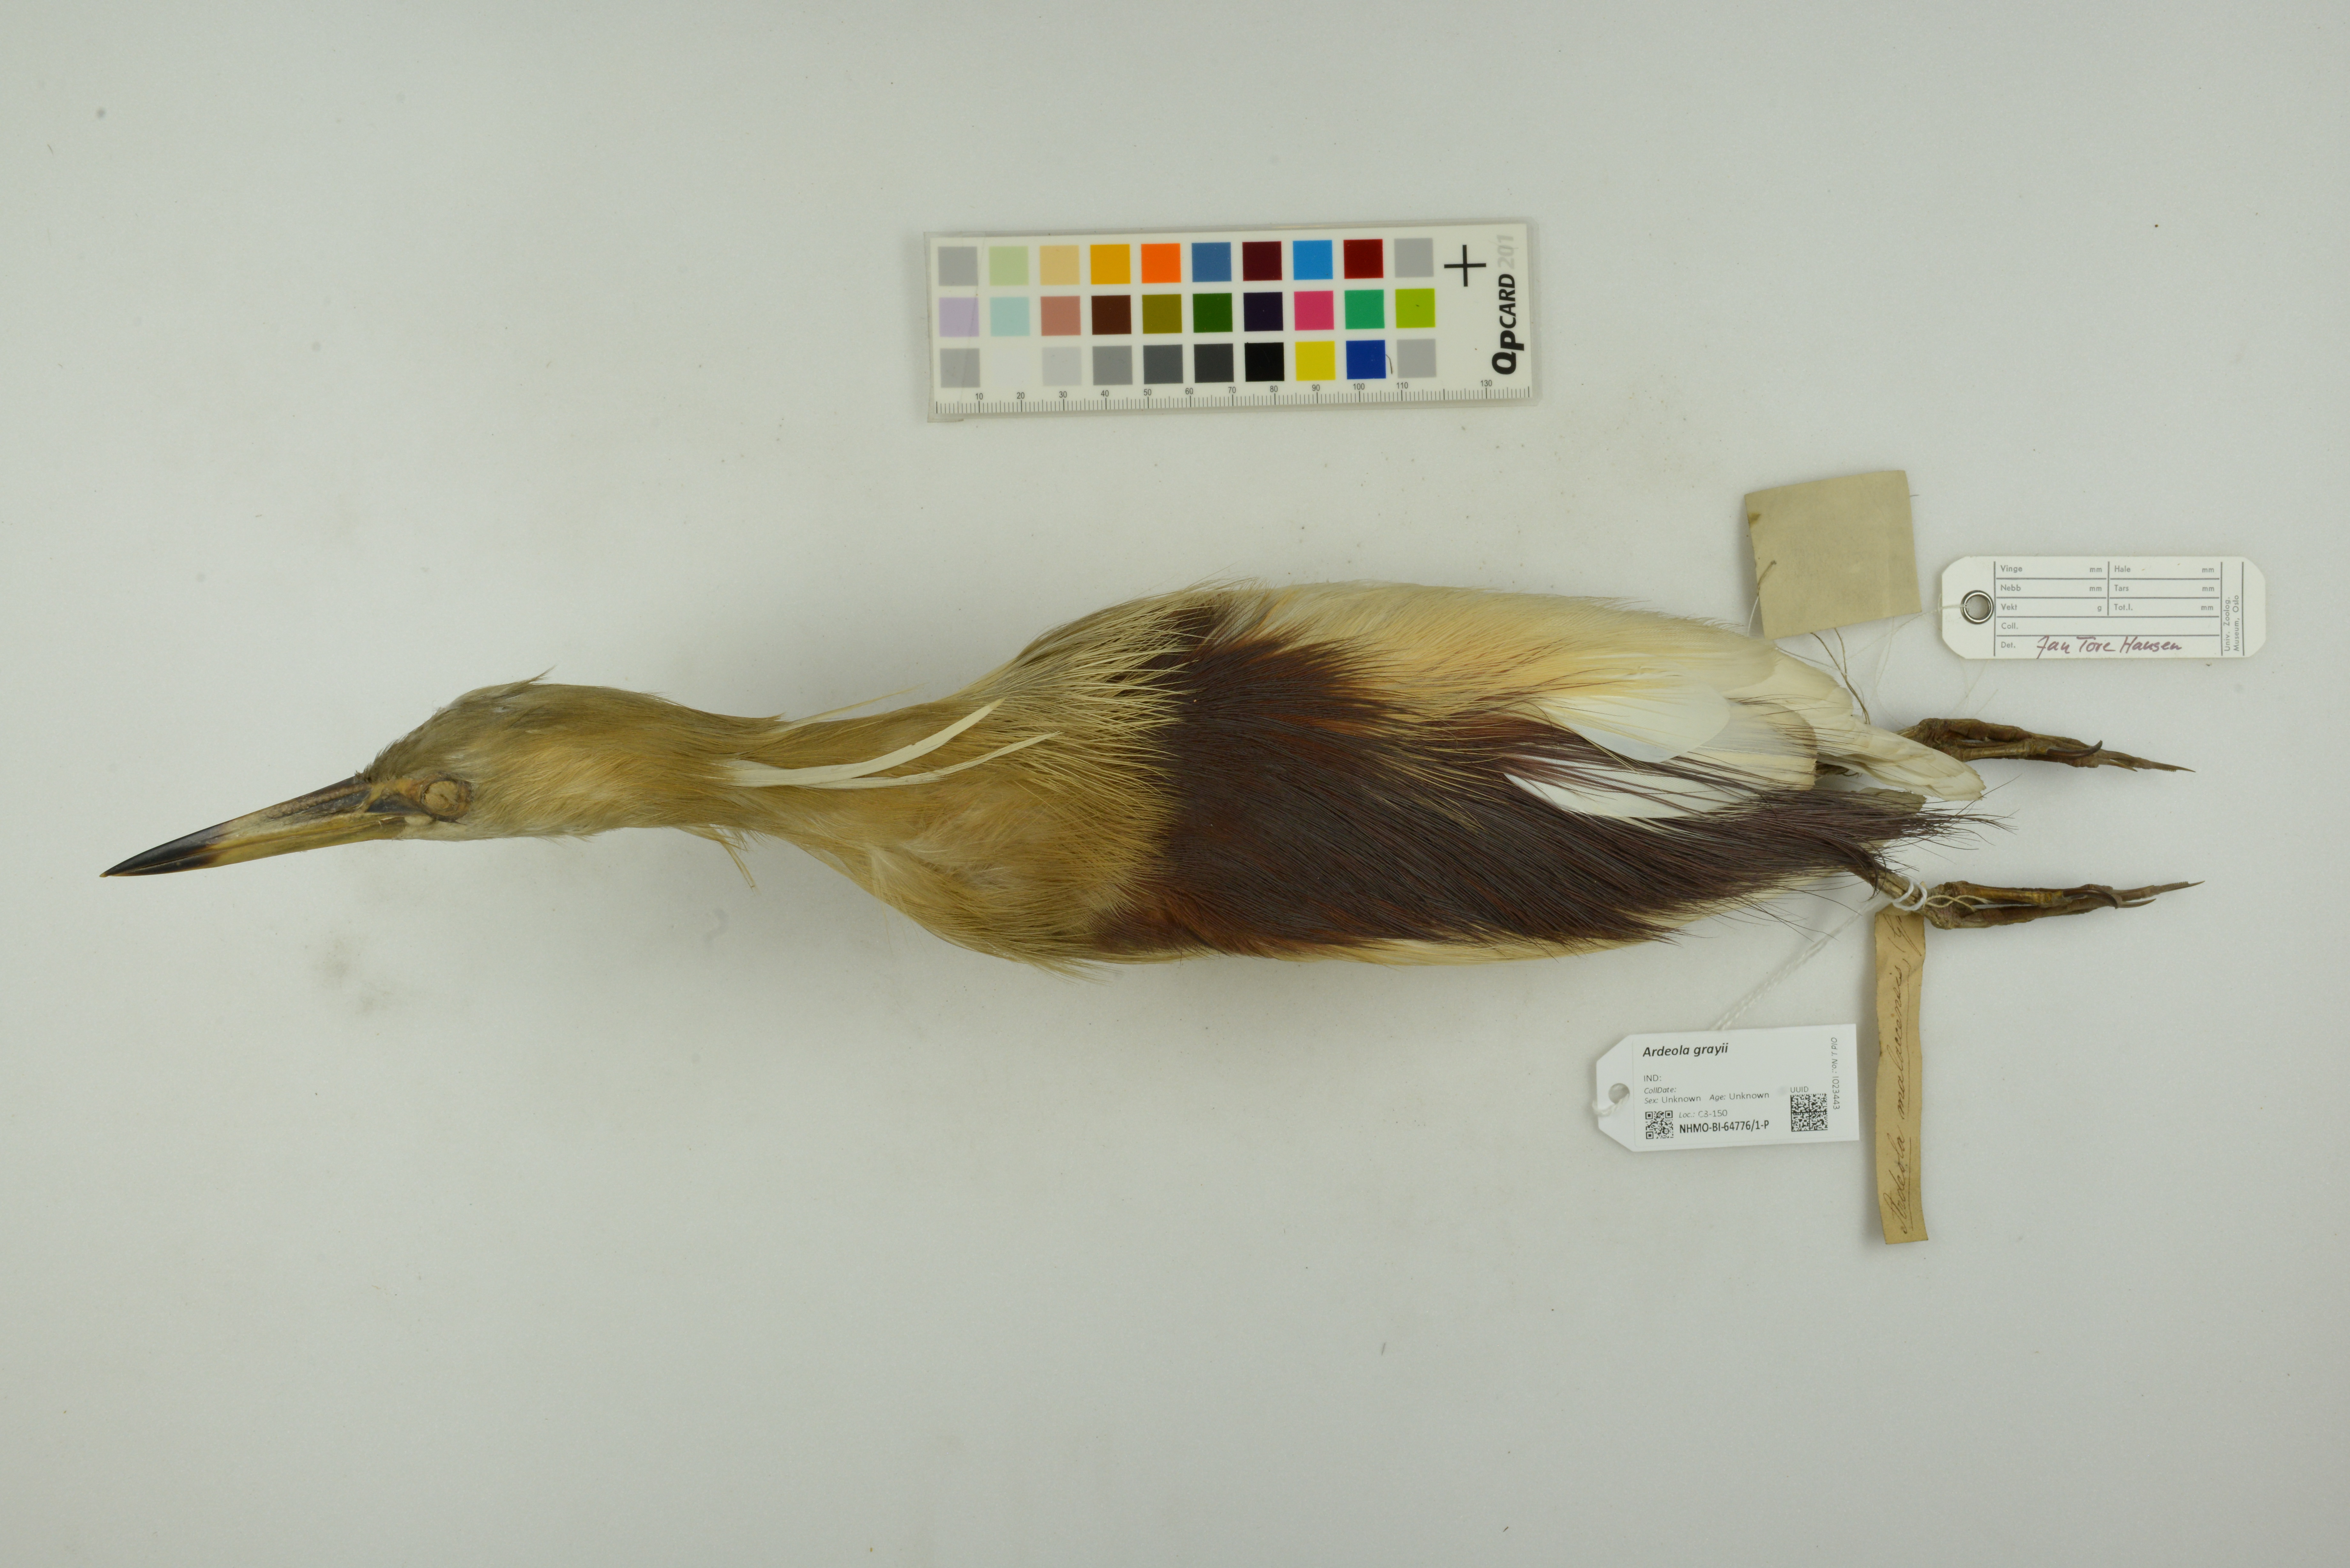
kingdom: Animalia
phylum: Chordata
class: Aves
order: Pelecaniformes
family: Ardeidae
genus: Ardeola
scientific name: Ardeola grayii
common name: Indian pond heron
